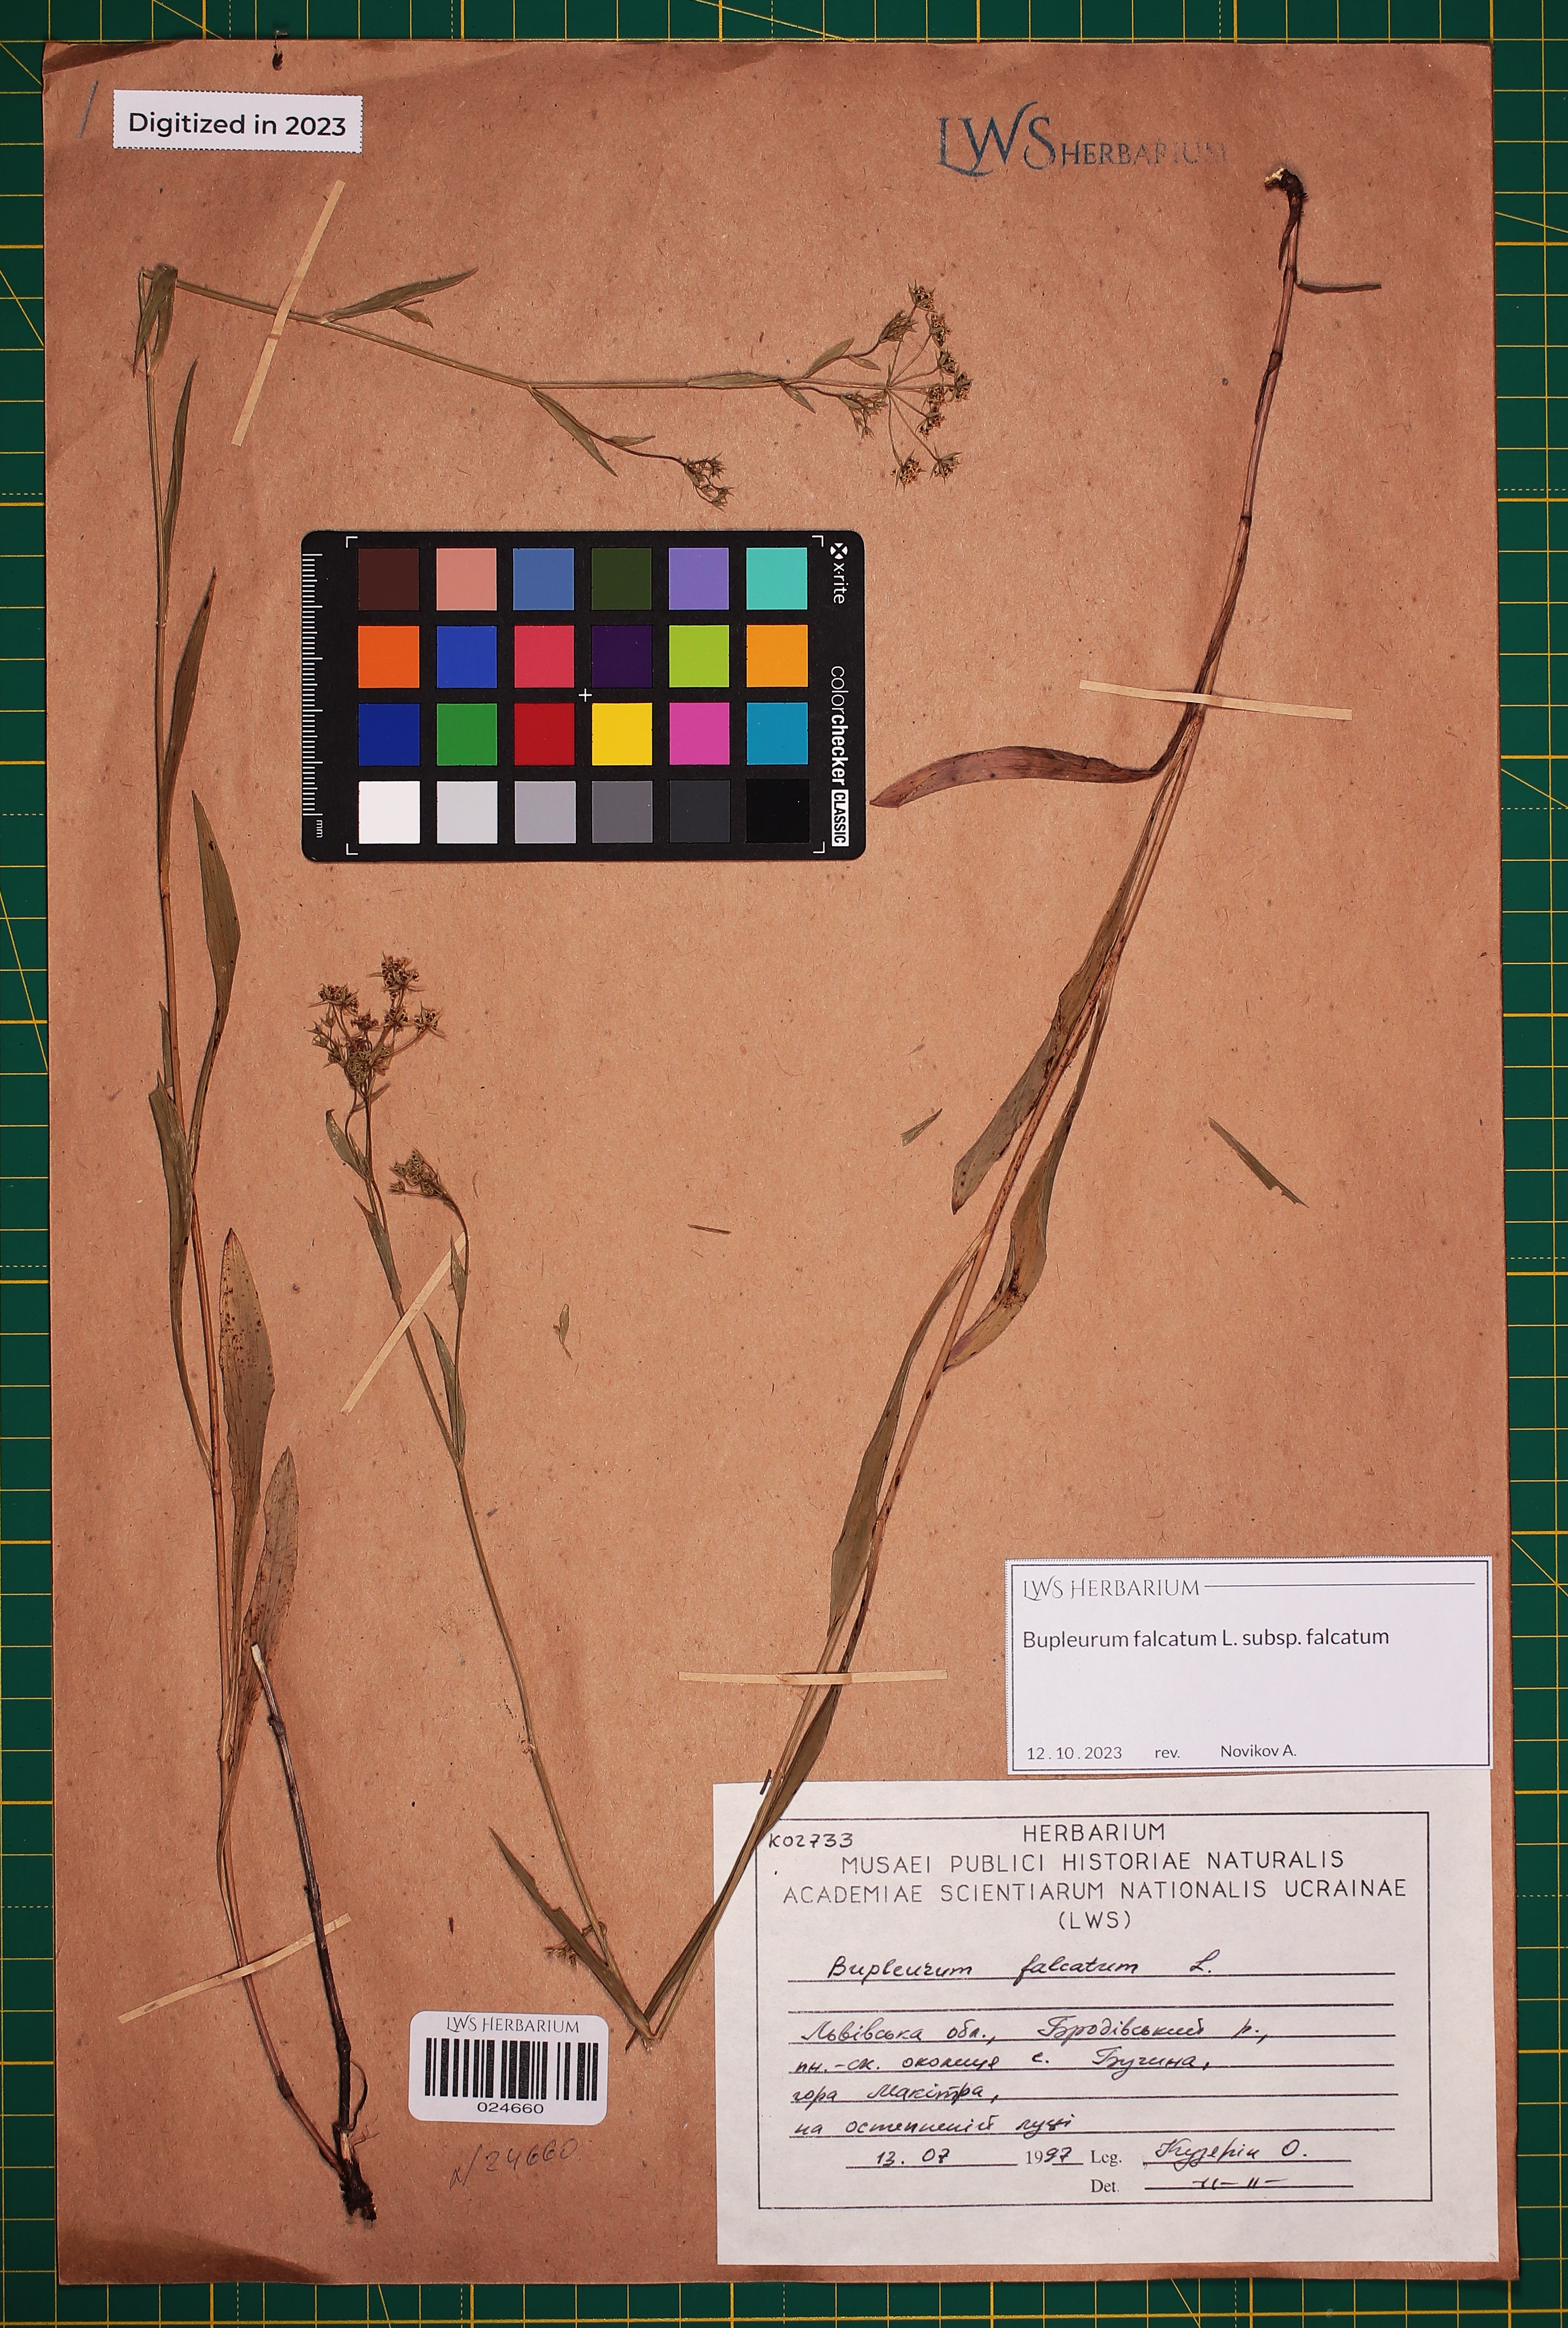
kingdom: Plantae
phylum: Tracheophyta
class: Magnoliopsida
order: Apiales
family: Apiaceae
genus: Bupleurum
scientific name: Bupleurum falcatum
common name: Sickle-leaved hare's-ear
